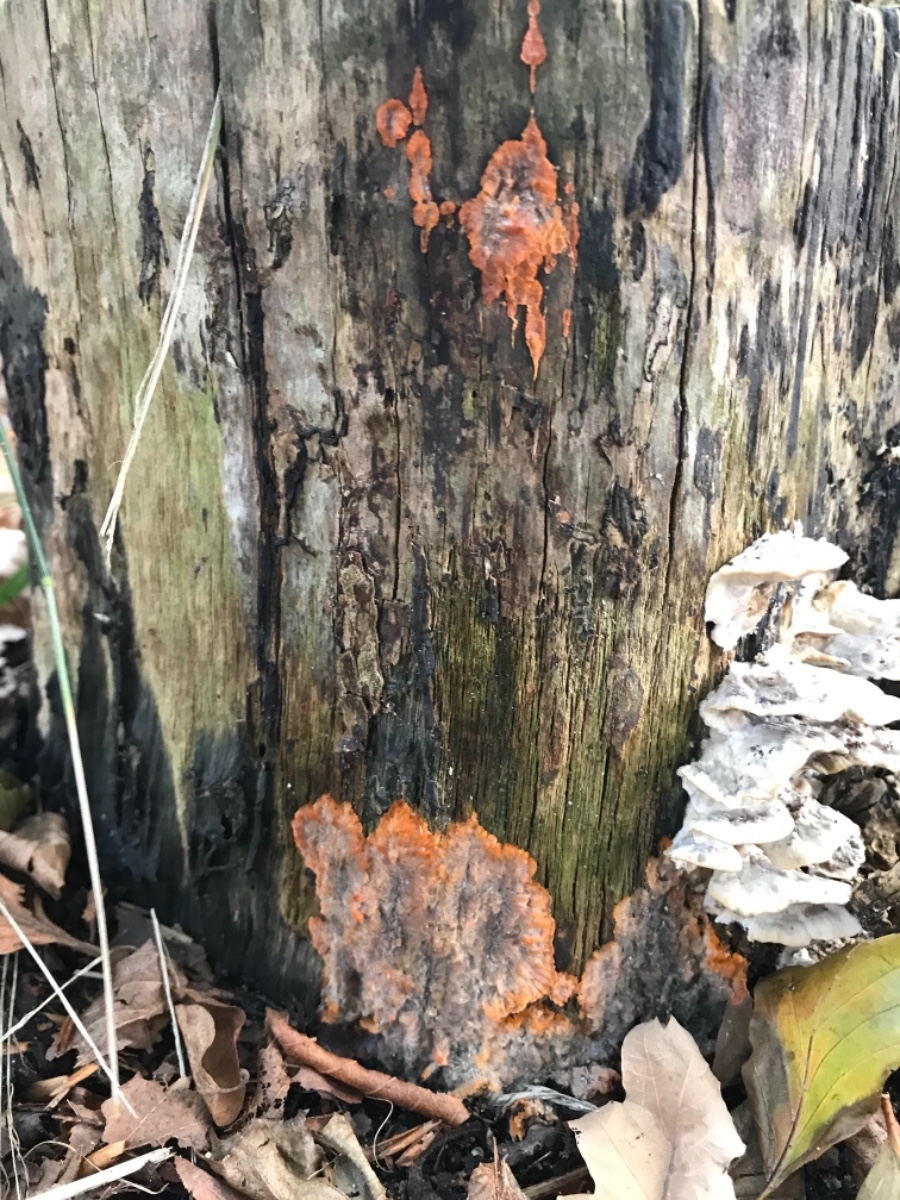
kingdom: Fungi
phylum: Basidiomycota
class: Agaricomycetes
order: Polyporales
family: Meruliaceae
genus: Phlebia
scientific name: Phlebia radiata
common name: stråle-åresvamp
